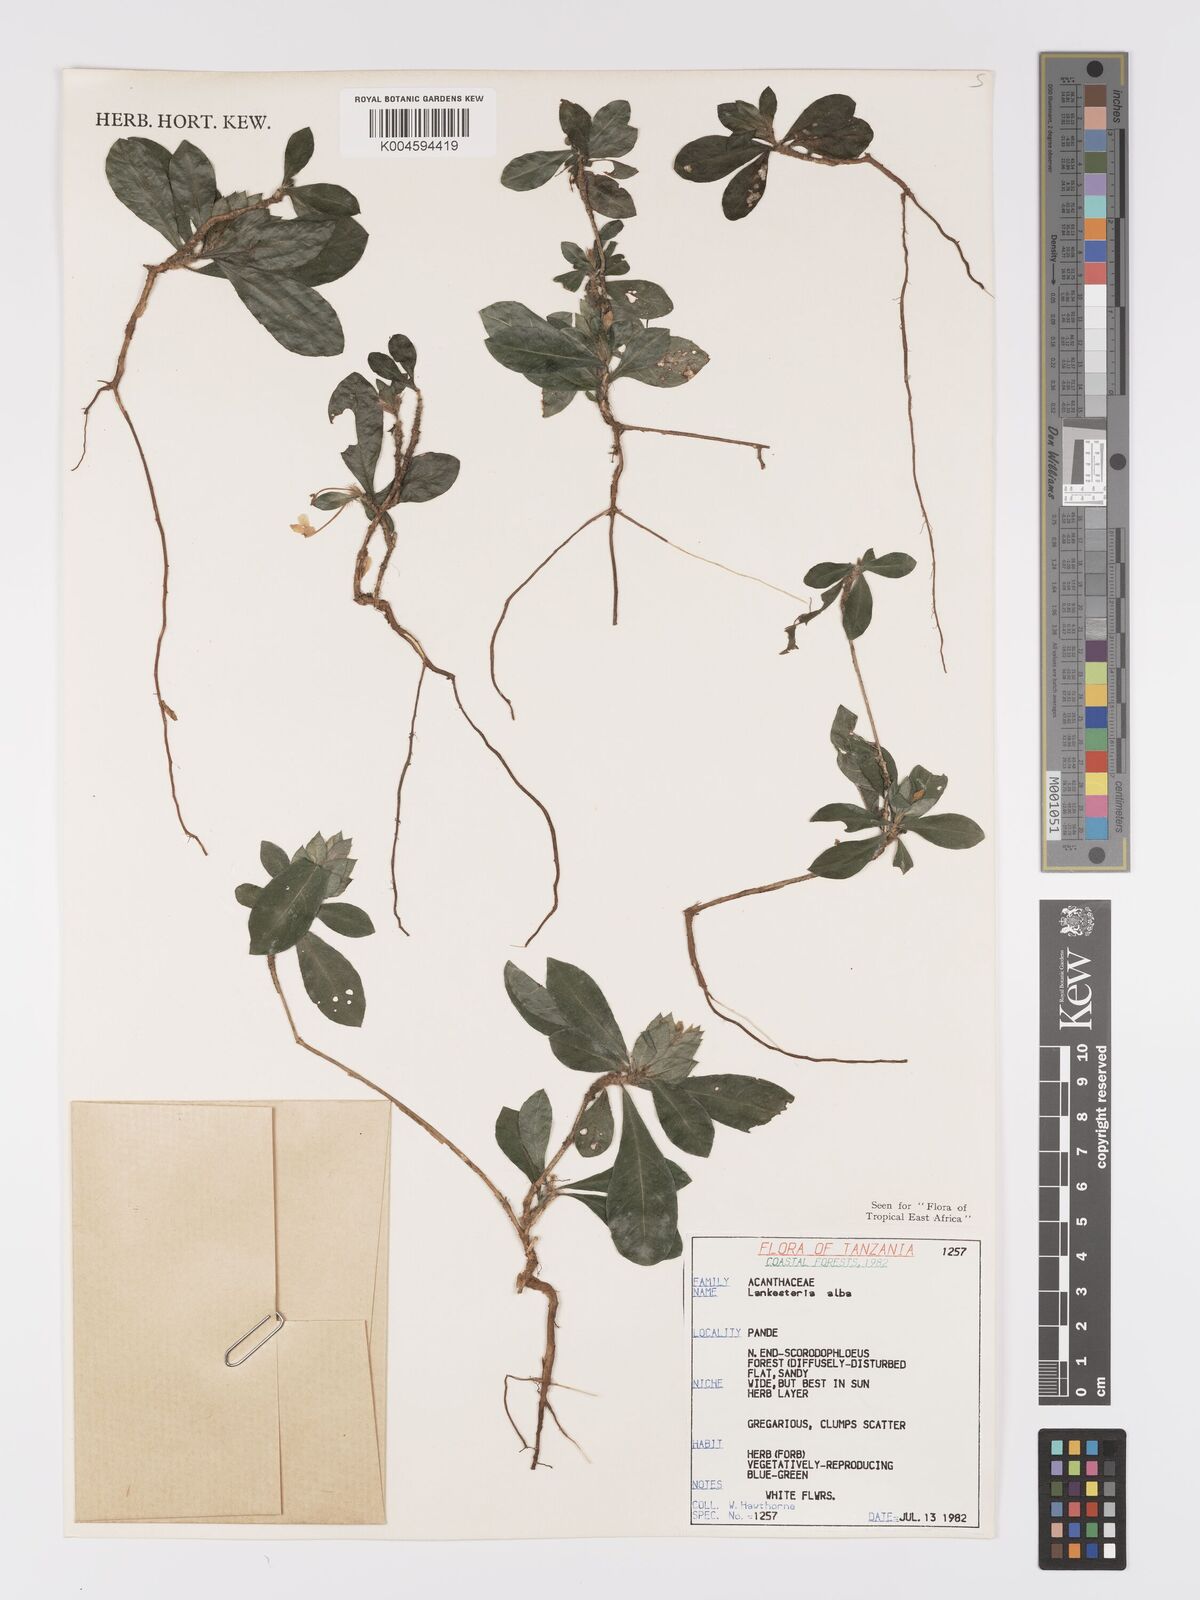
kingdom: Plantae
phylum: Tracheophyta
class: Magnoliopsida
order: Lamiales
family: Acanthaceae
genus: Lankesteria
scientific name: Lankesteria alba
